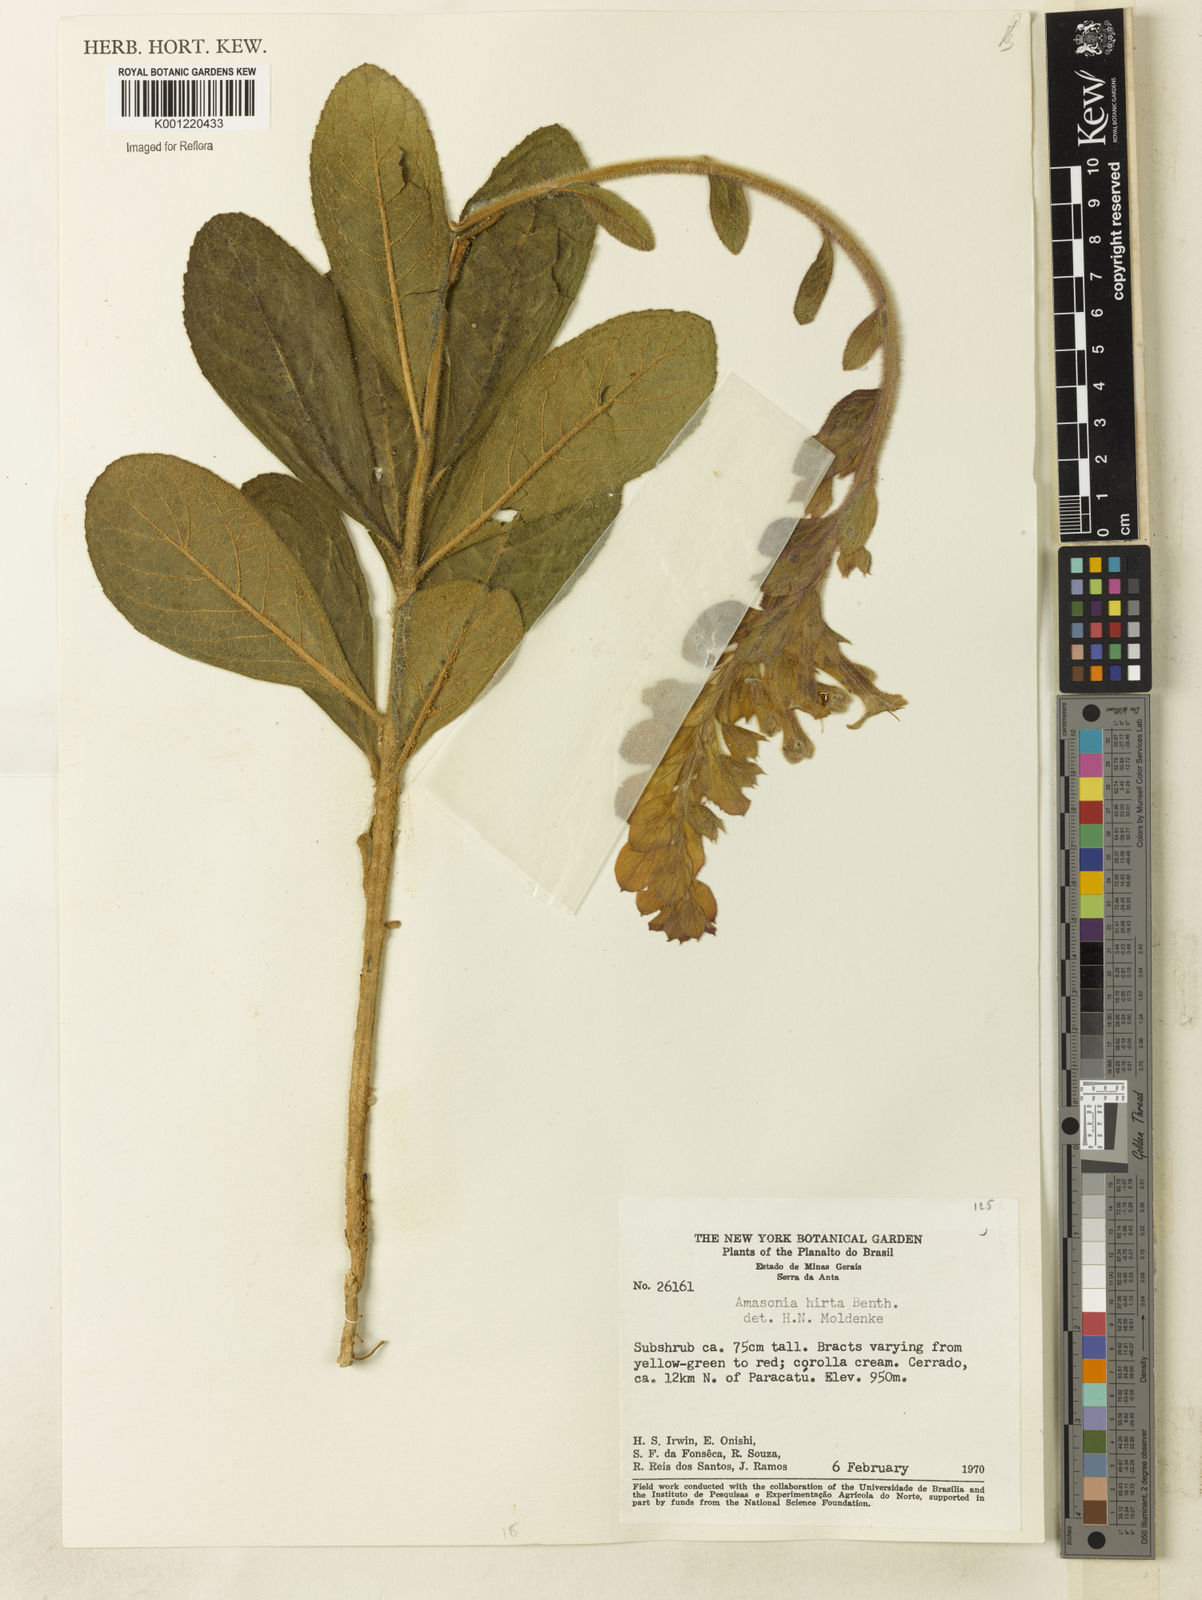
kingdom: Plantae
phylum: Tracheophyta
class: Magnoliopsida
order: Lamiales
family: Lamiaceae
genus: Amasonia
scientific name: Amasonia hirta
